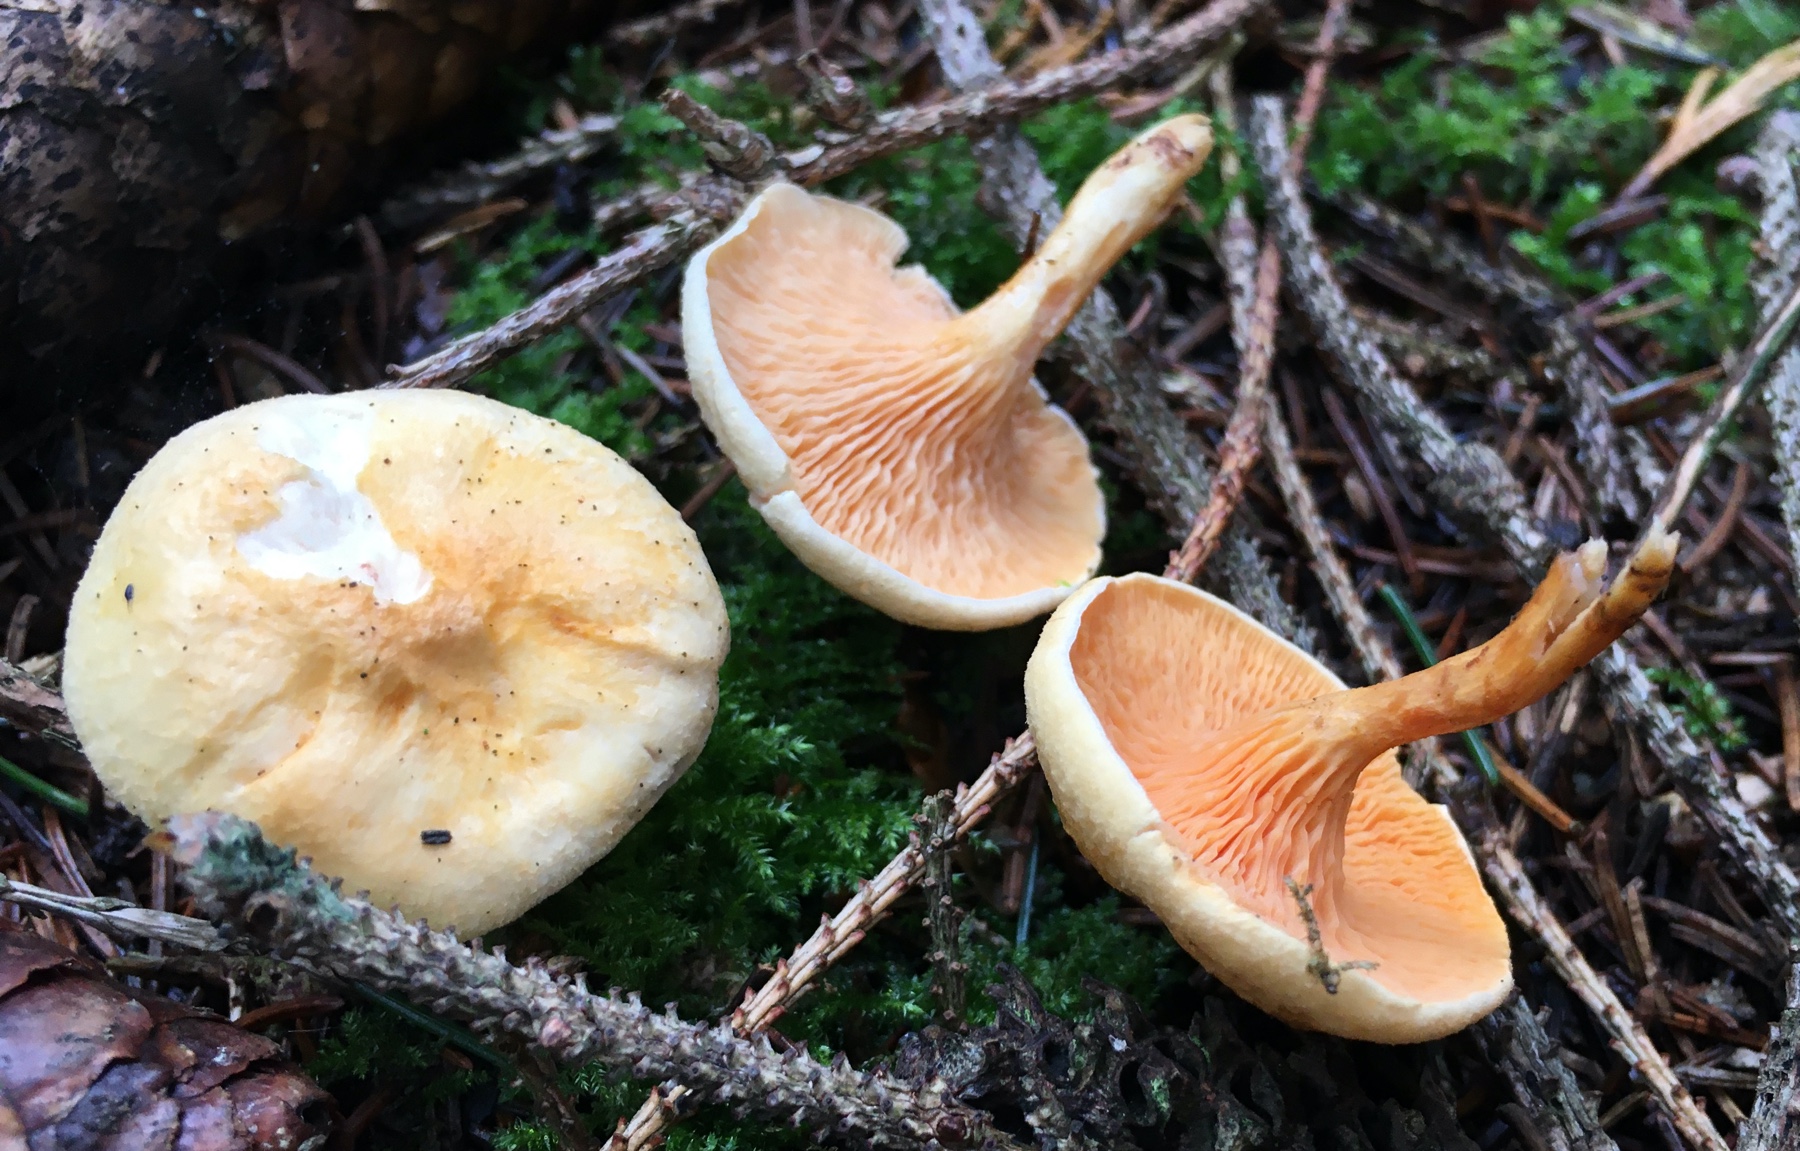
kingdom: Fungi
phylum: Basidiomycota
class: Agaricomycetes
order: Boletales
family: Hygrophoropsidaceae
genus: Hygrophoropsis
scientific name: Hygrophoropsis aurantiaca
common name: almindelig orangekantarel
